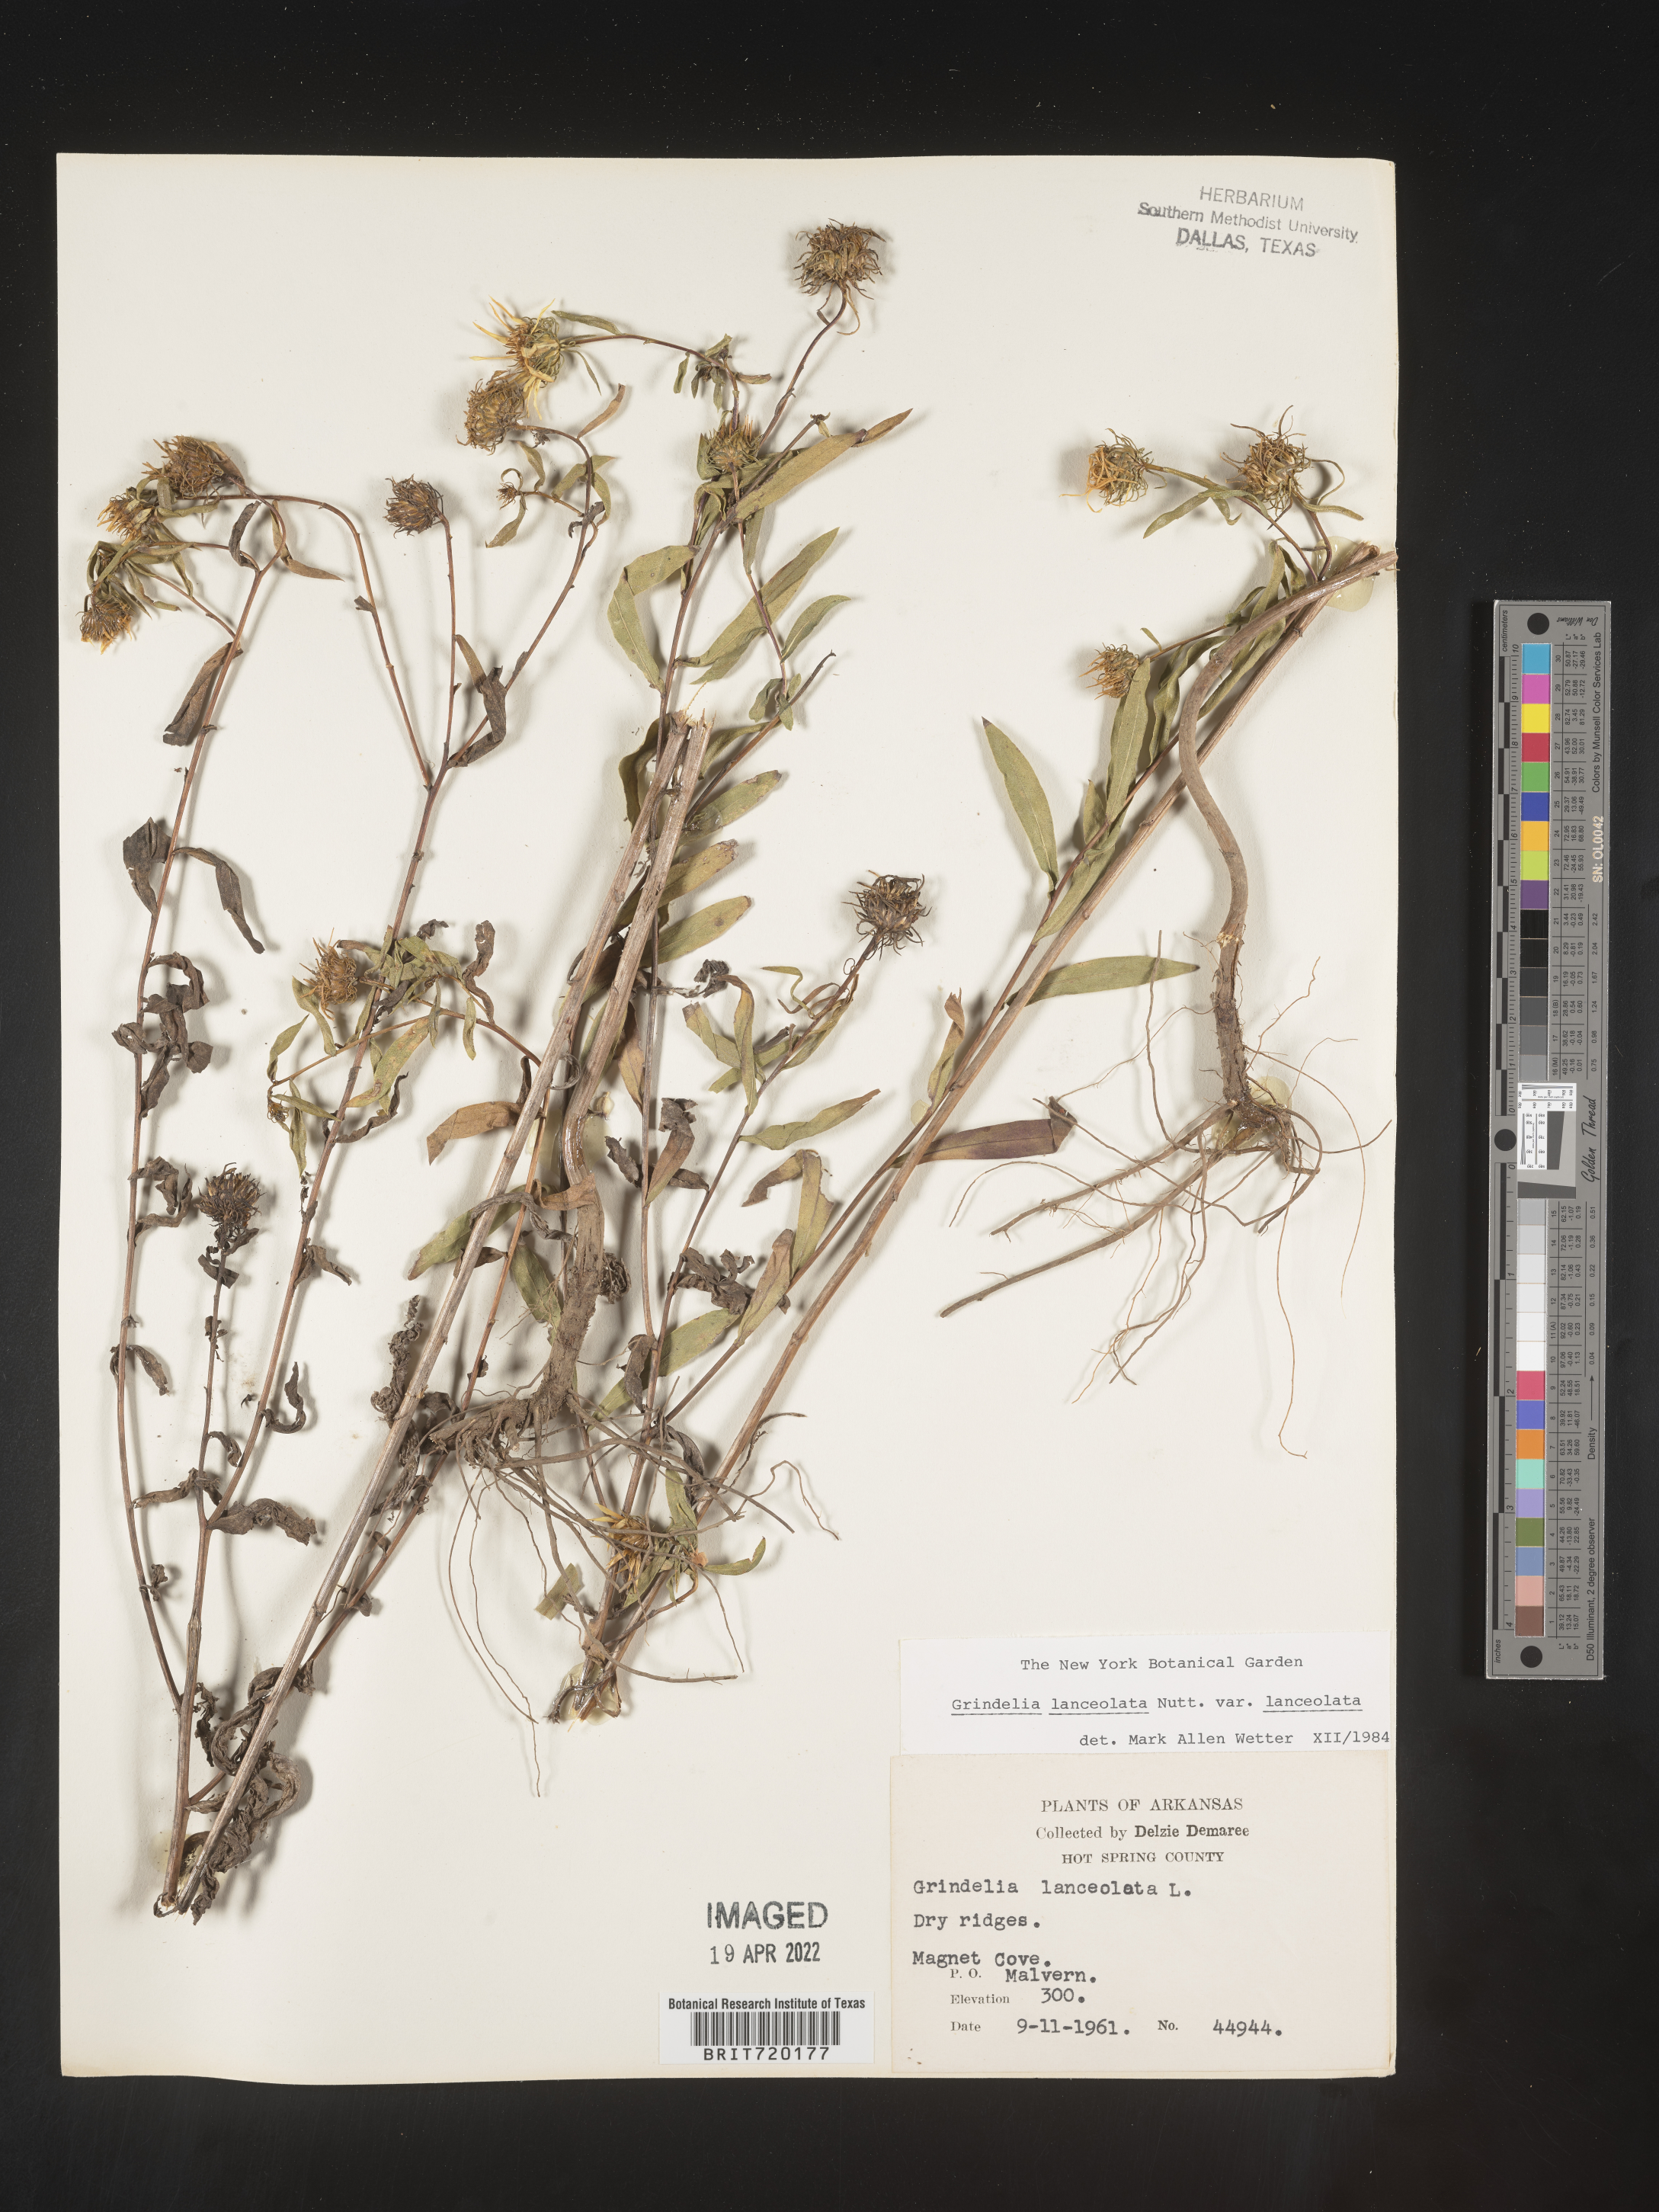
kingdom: Plantae
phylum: Tracheophyta
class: Magnoliopsida
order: Asterales
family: Asteraceae
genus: Grindelia
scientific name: Grindelia lanceolata
